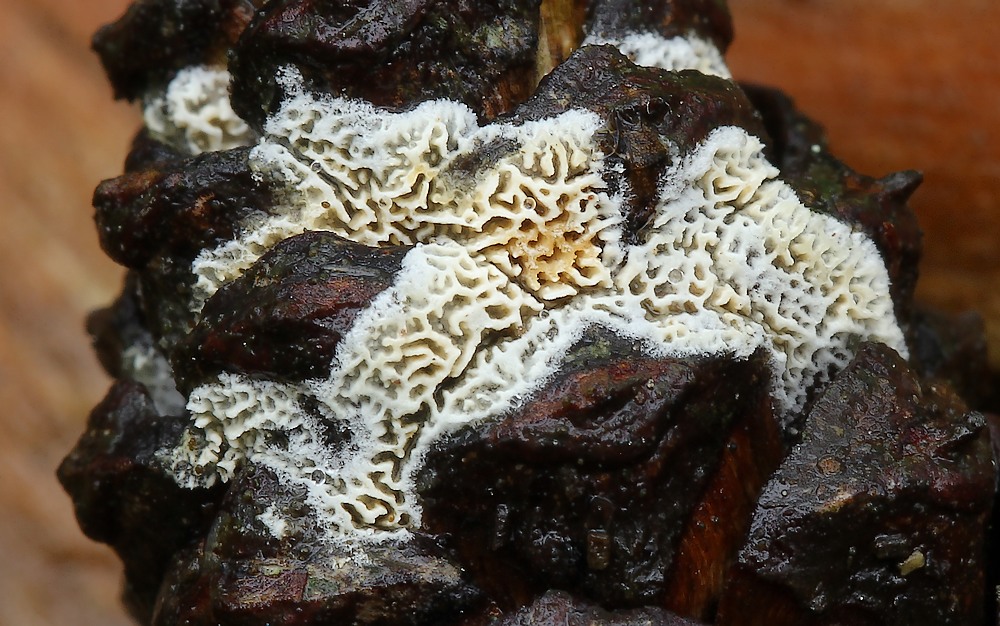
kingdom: Fungi
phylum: Basidiomycota
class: Agaricomycetes
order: Hymenochaetales
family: Schizoporaceae
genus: Xylodon
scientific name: Xylodon subtropicus
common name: labyrint-tandsvamp
